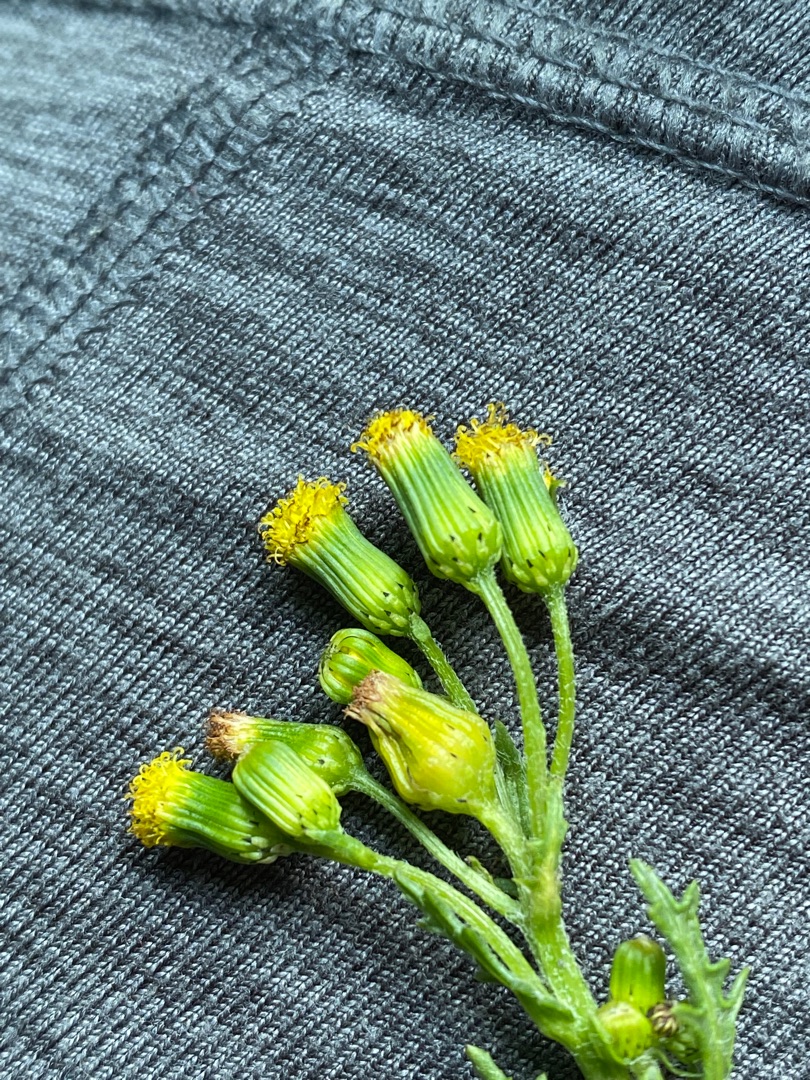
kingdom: Plantae
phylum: Tracheophyta
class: Magnoliopsida
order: Asterales
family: Asteraceae
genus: Senecio
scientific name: Senecio vulgaris
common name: Almindelig brandbæger
